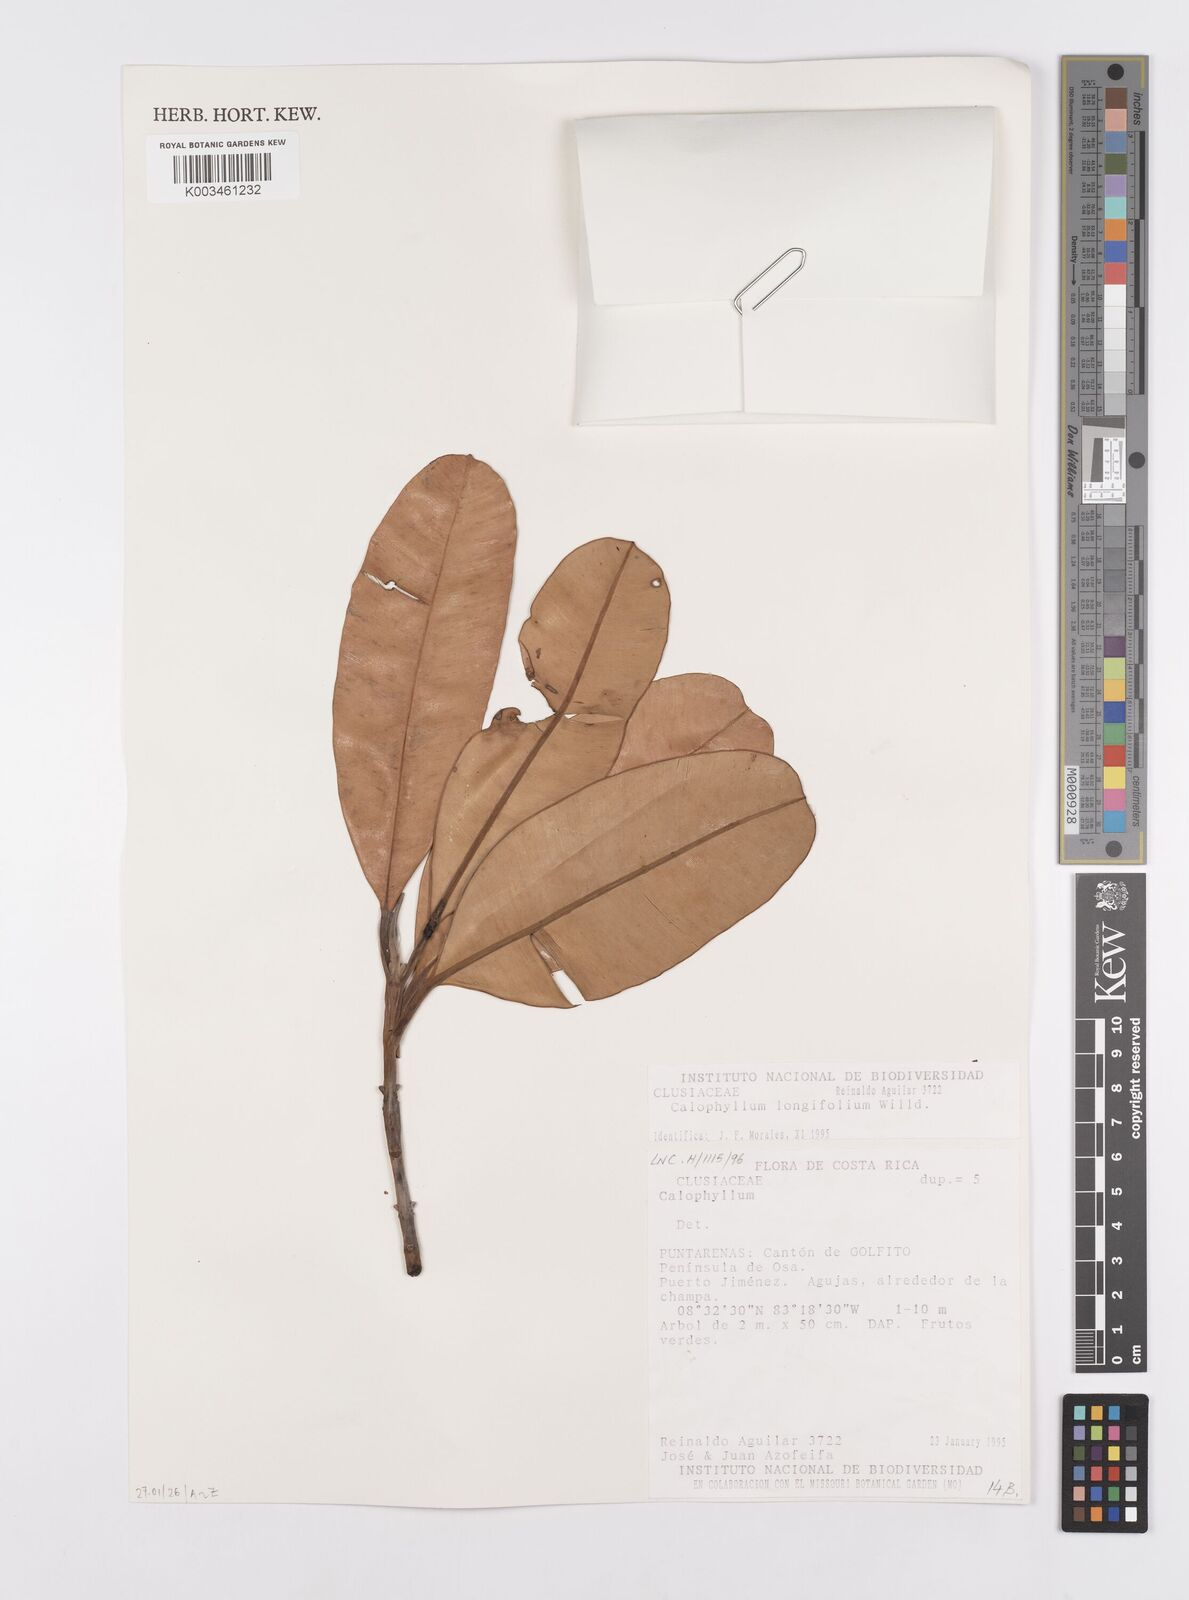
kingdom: Plantae
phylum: Tracheophyta
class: Magnoliopsida
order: Malpighiales
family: Calophyllaceae
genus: Calophyllum
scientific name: Calophyllum longifolium
